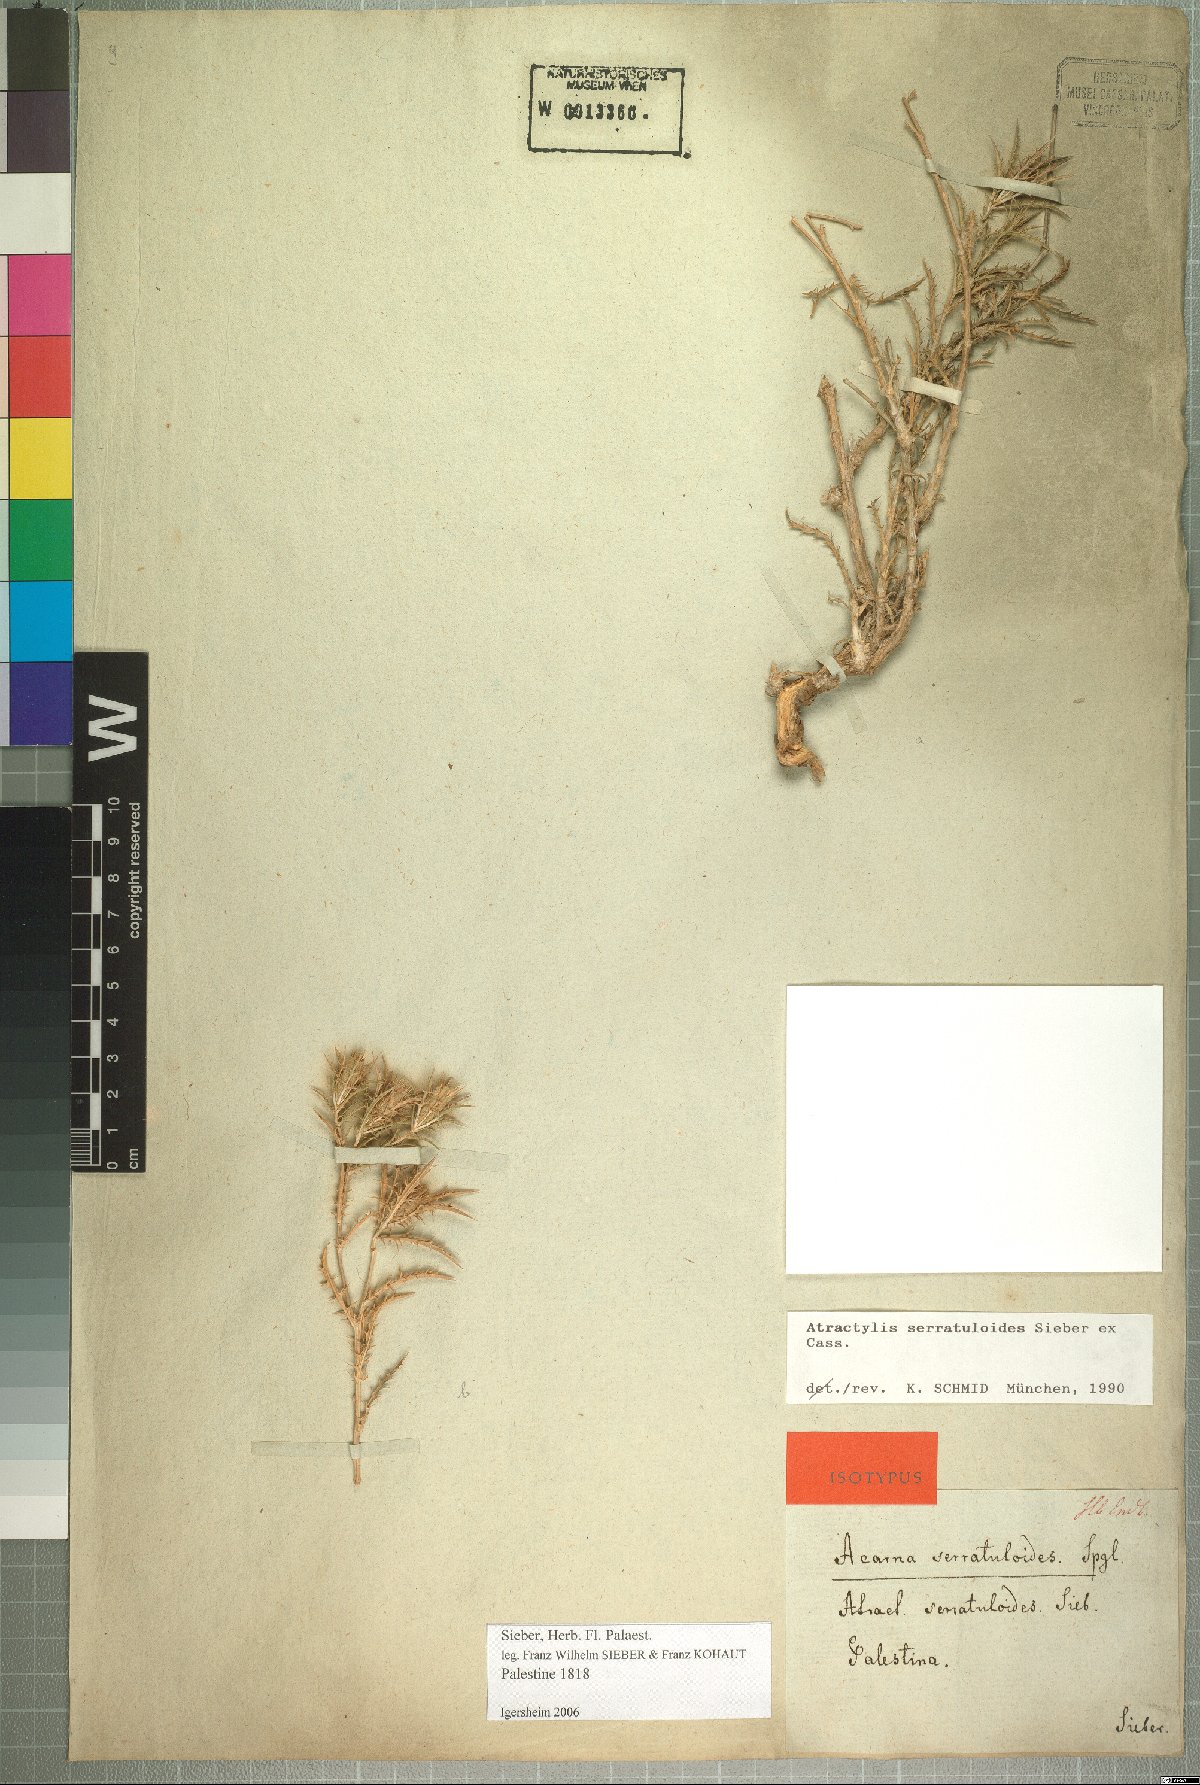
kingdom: Plantae
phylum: Tracheophyta
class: Magnoliopsida
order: Asterales
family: Asteraceae
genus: Atractylis
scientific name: Atractylis serratuloides
